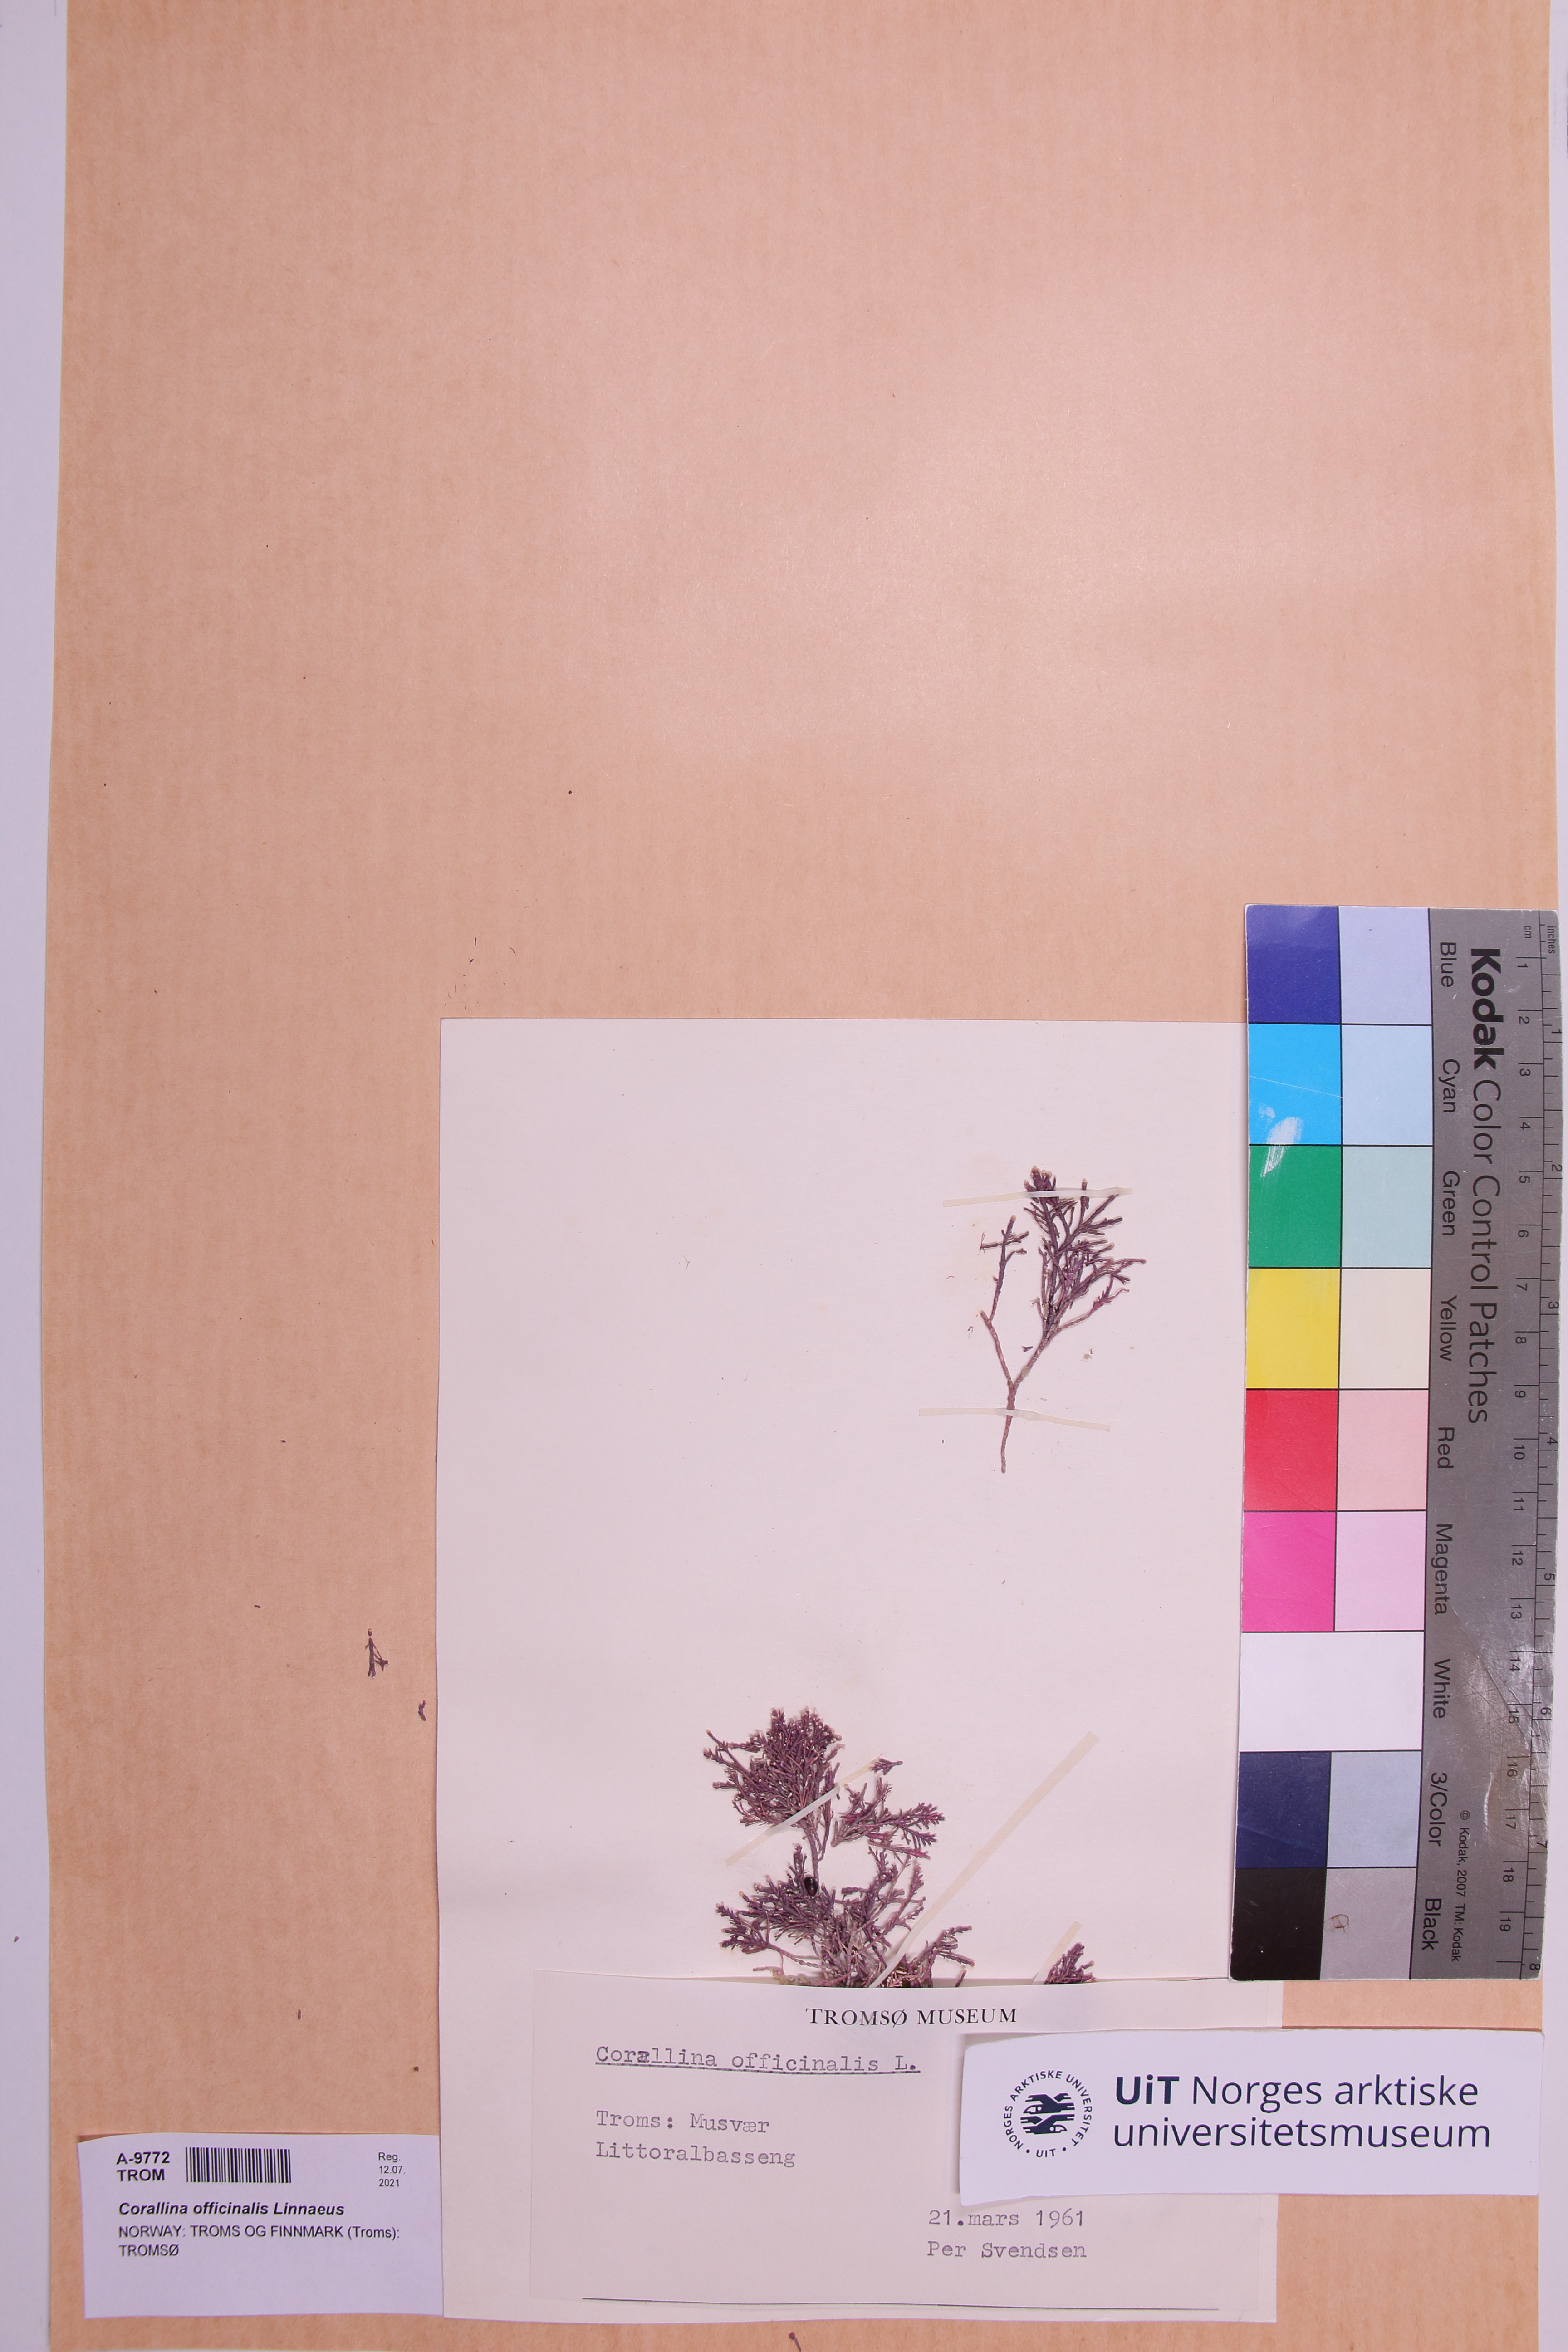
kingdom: Plantae
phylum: Rhodophyta
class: Florideophyceae
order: Corallinales
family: Corallinaceae
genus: Corallina
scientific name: Corallina officinalis
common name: Coral weed
